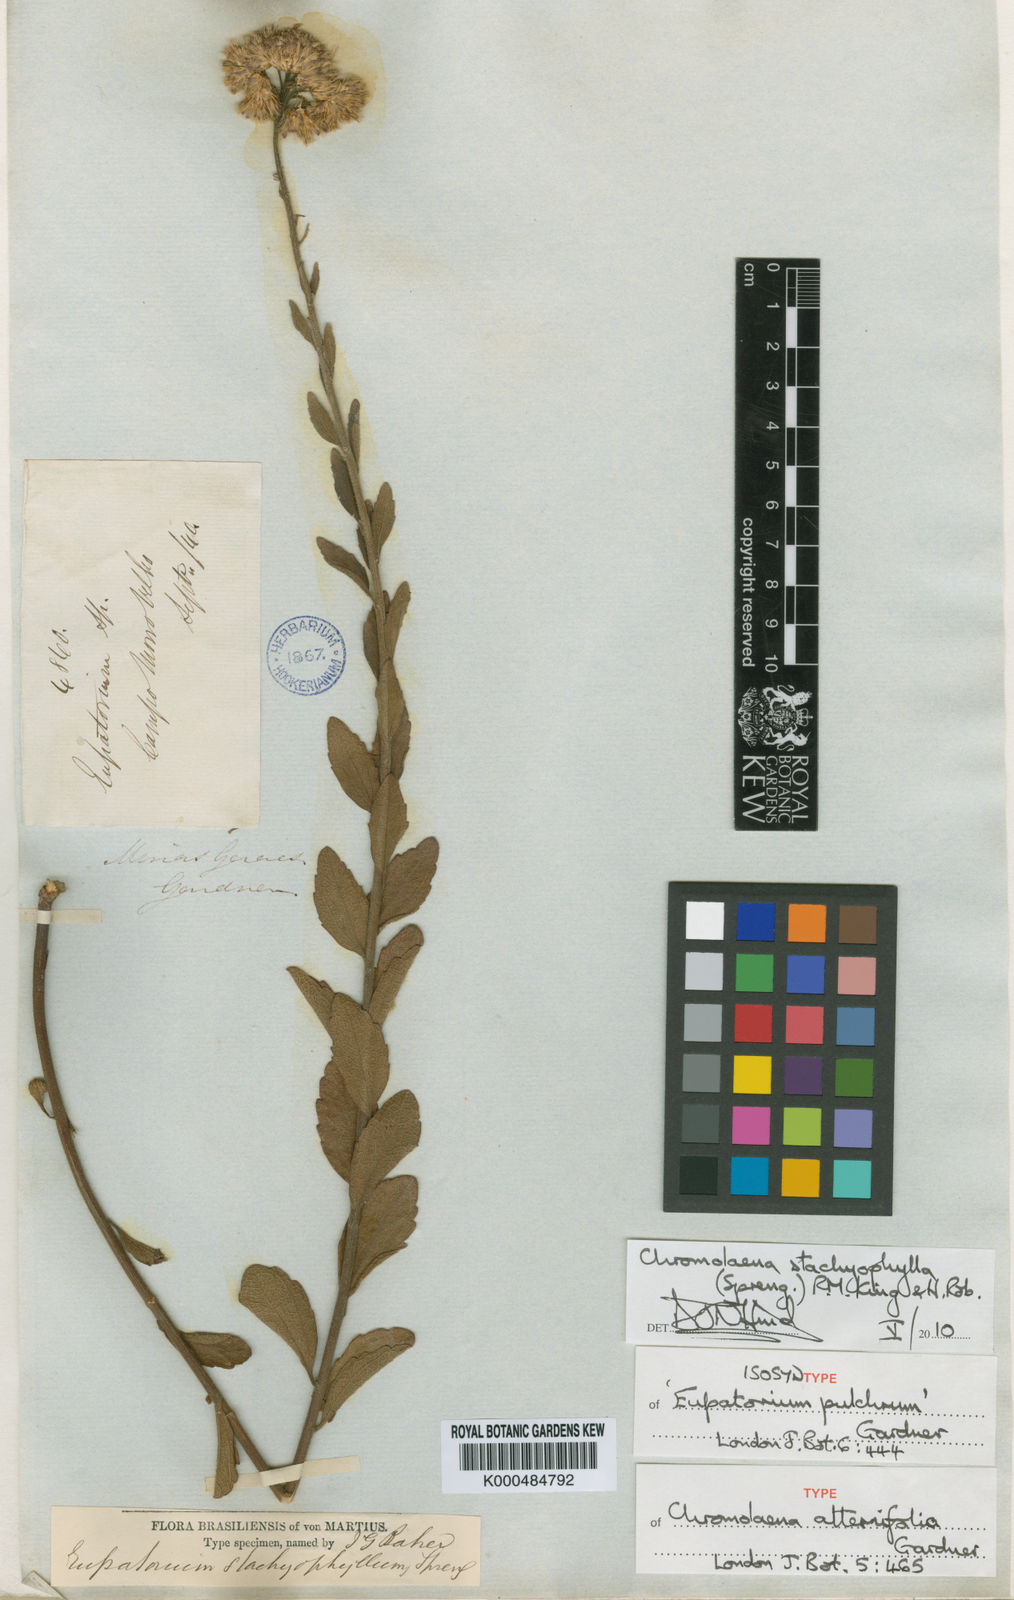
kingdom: Plantae
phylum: Tracheophyta
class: Magnoliopsida
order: Asterales
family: Asteraceae
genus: Chromolaena
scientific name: Chromolaena stachyophylla
